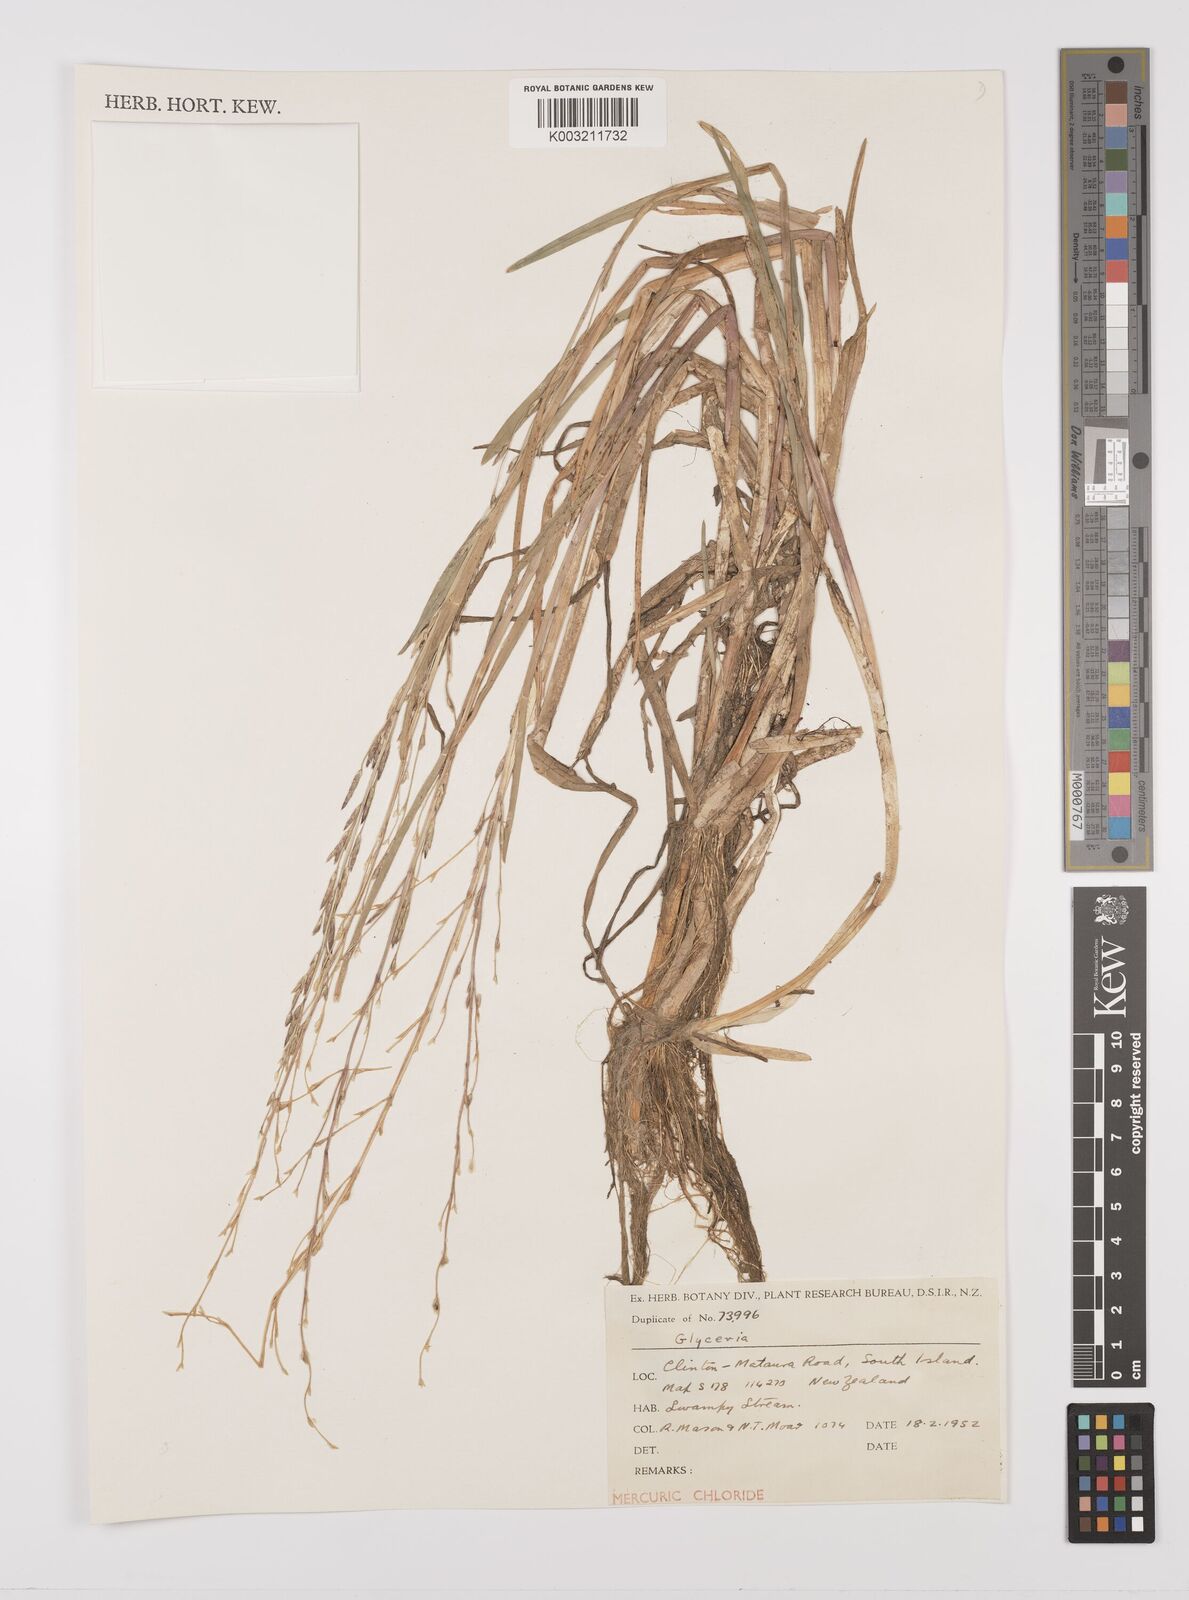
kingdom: Plantae
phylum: Tracheophyta
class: Liliopsida
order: Poales
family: Poaceae
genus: Glyceria
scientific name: Glyceria
